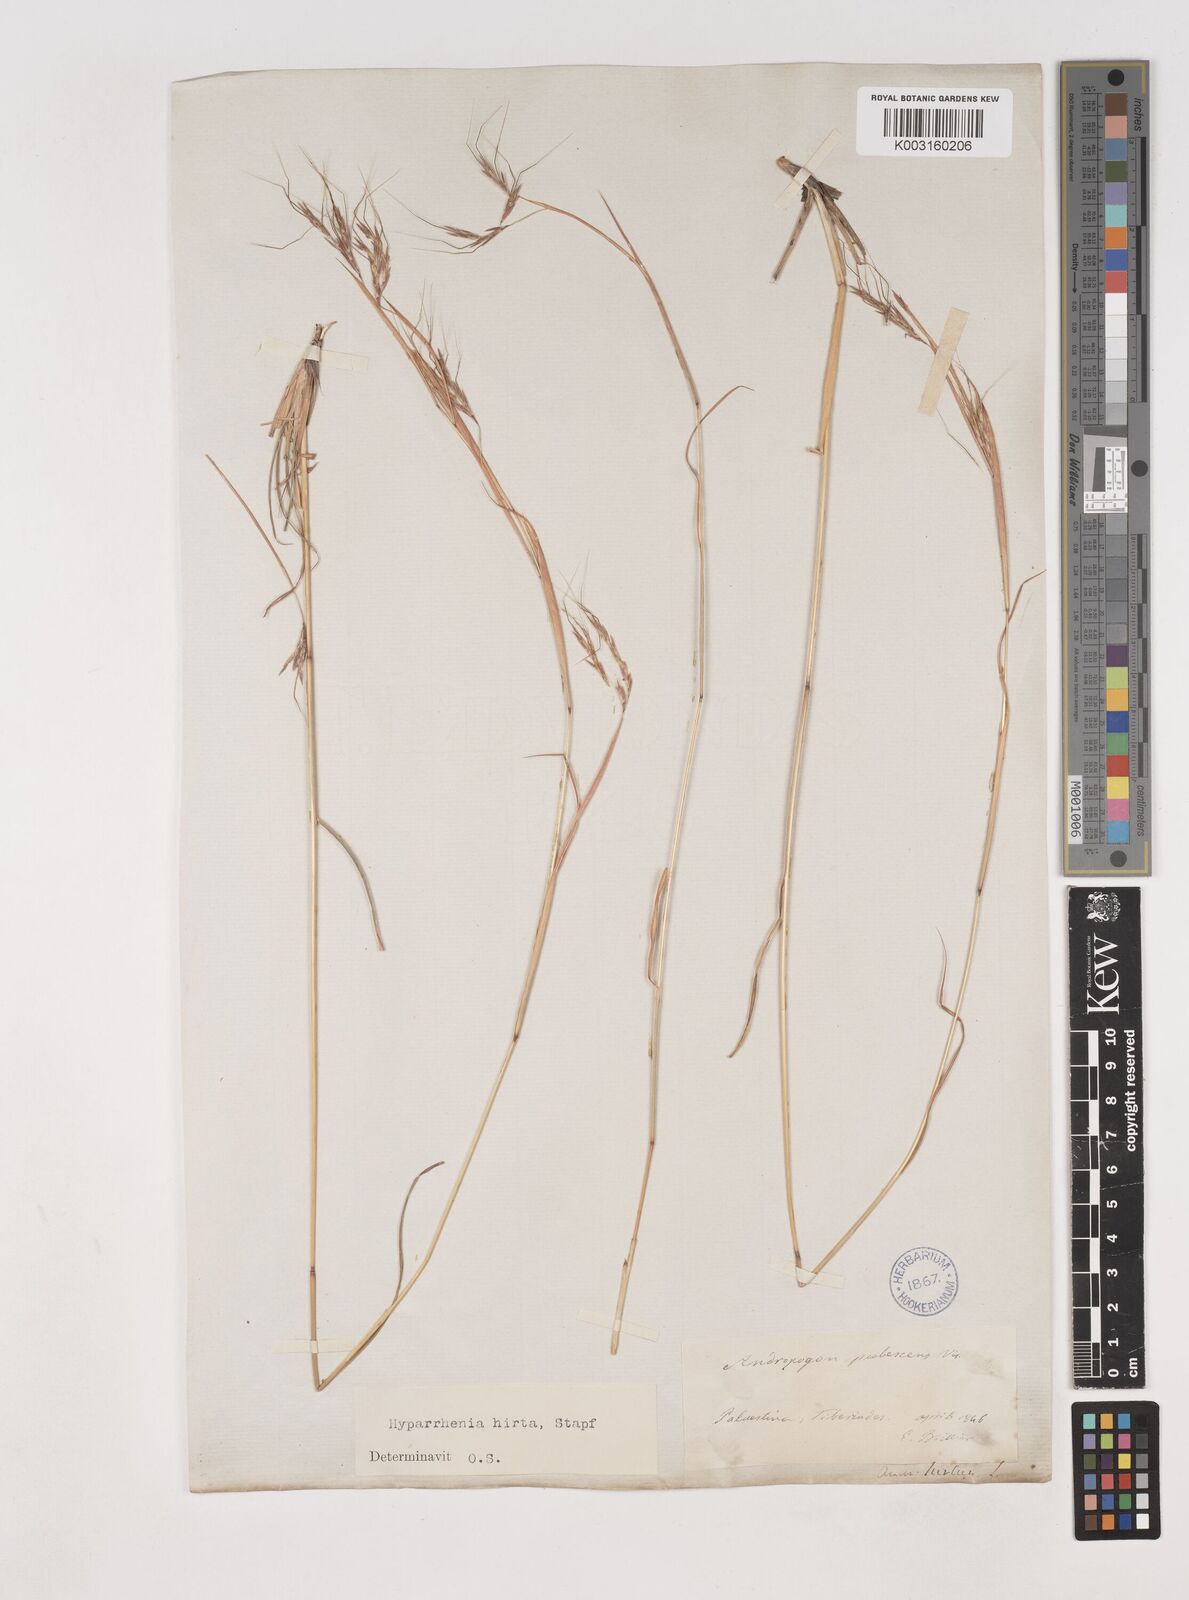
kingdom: Plantae
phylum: Tracheophyta
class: Liliopsida
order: Poales
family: Poaceae
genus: Hyparrhenia
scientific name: Hyparrhenia hirta
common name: Thatching grass
